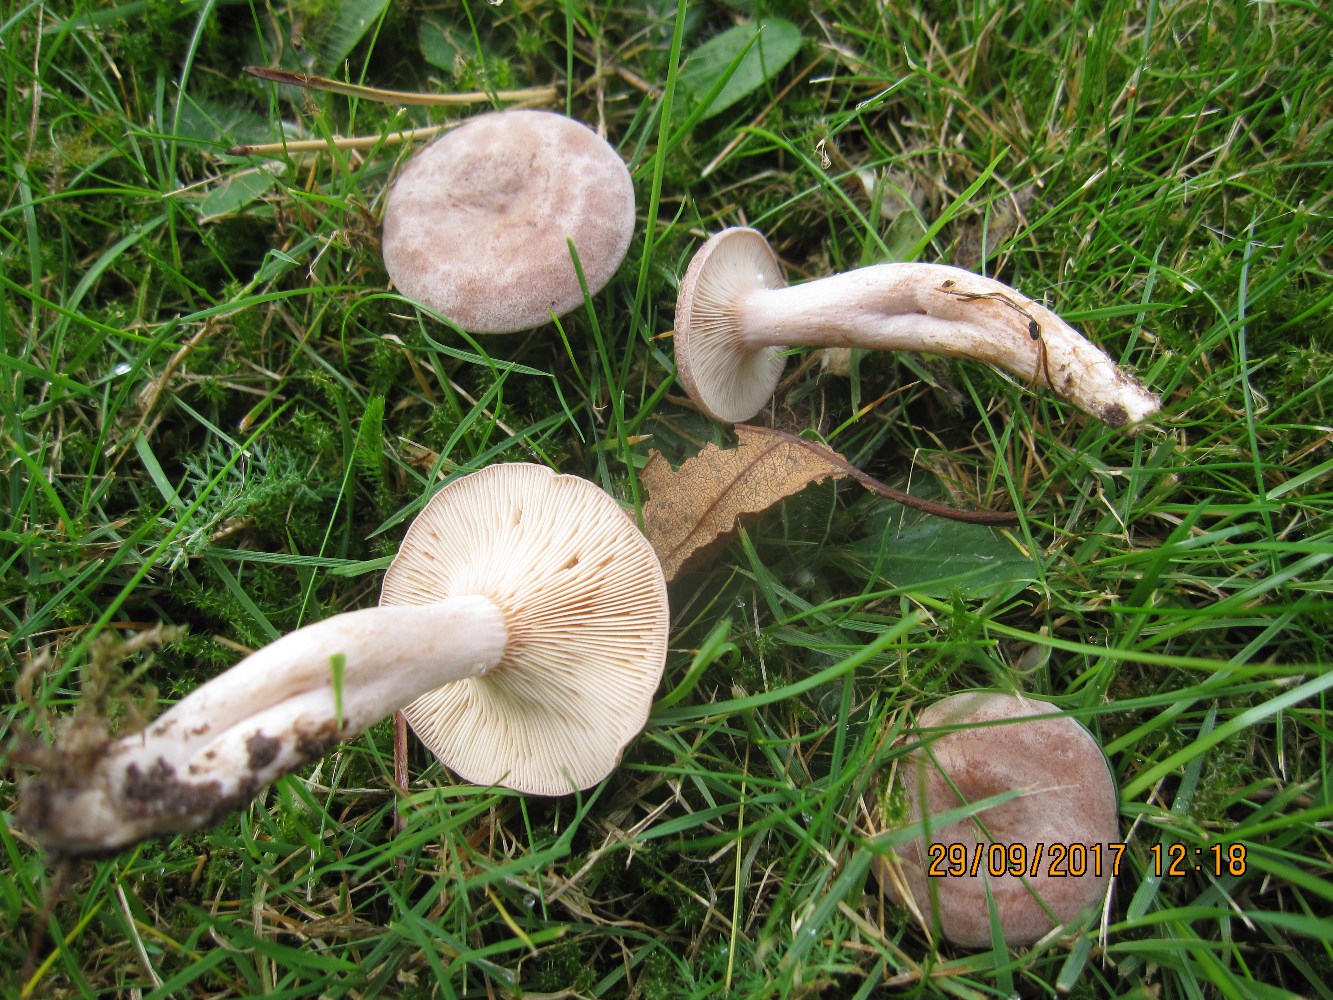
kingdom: Fungi
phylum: Basidiomycota
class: Agaricomycetes
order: Russulales
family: Russulaceae
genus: Lactarius
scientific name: Lactarius glyciosmus
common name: kokos-mælkehat
